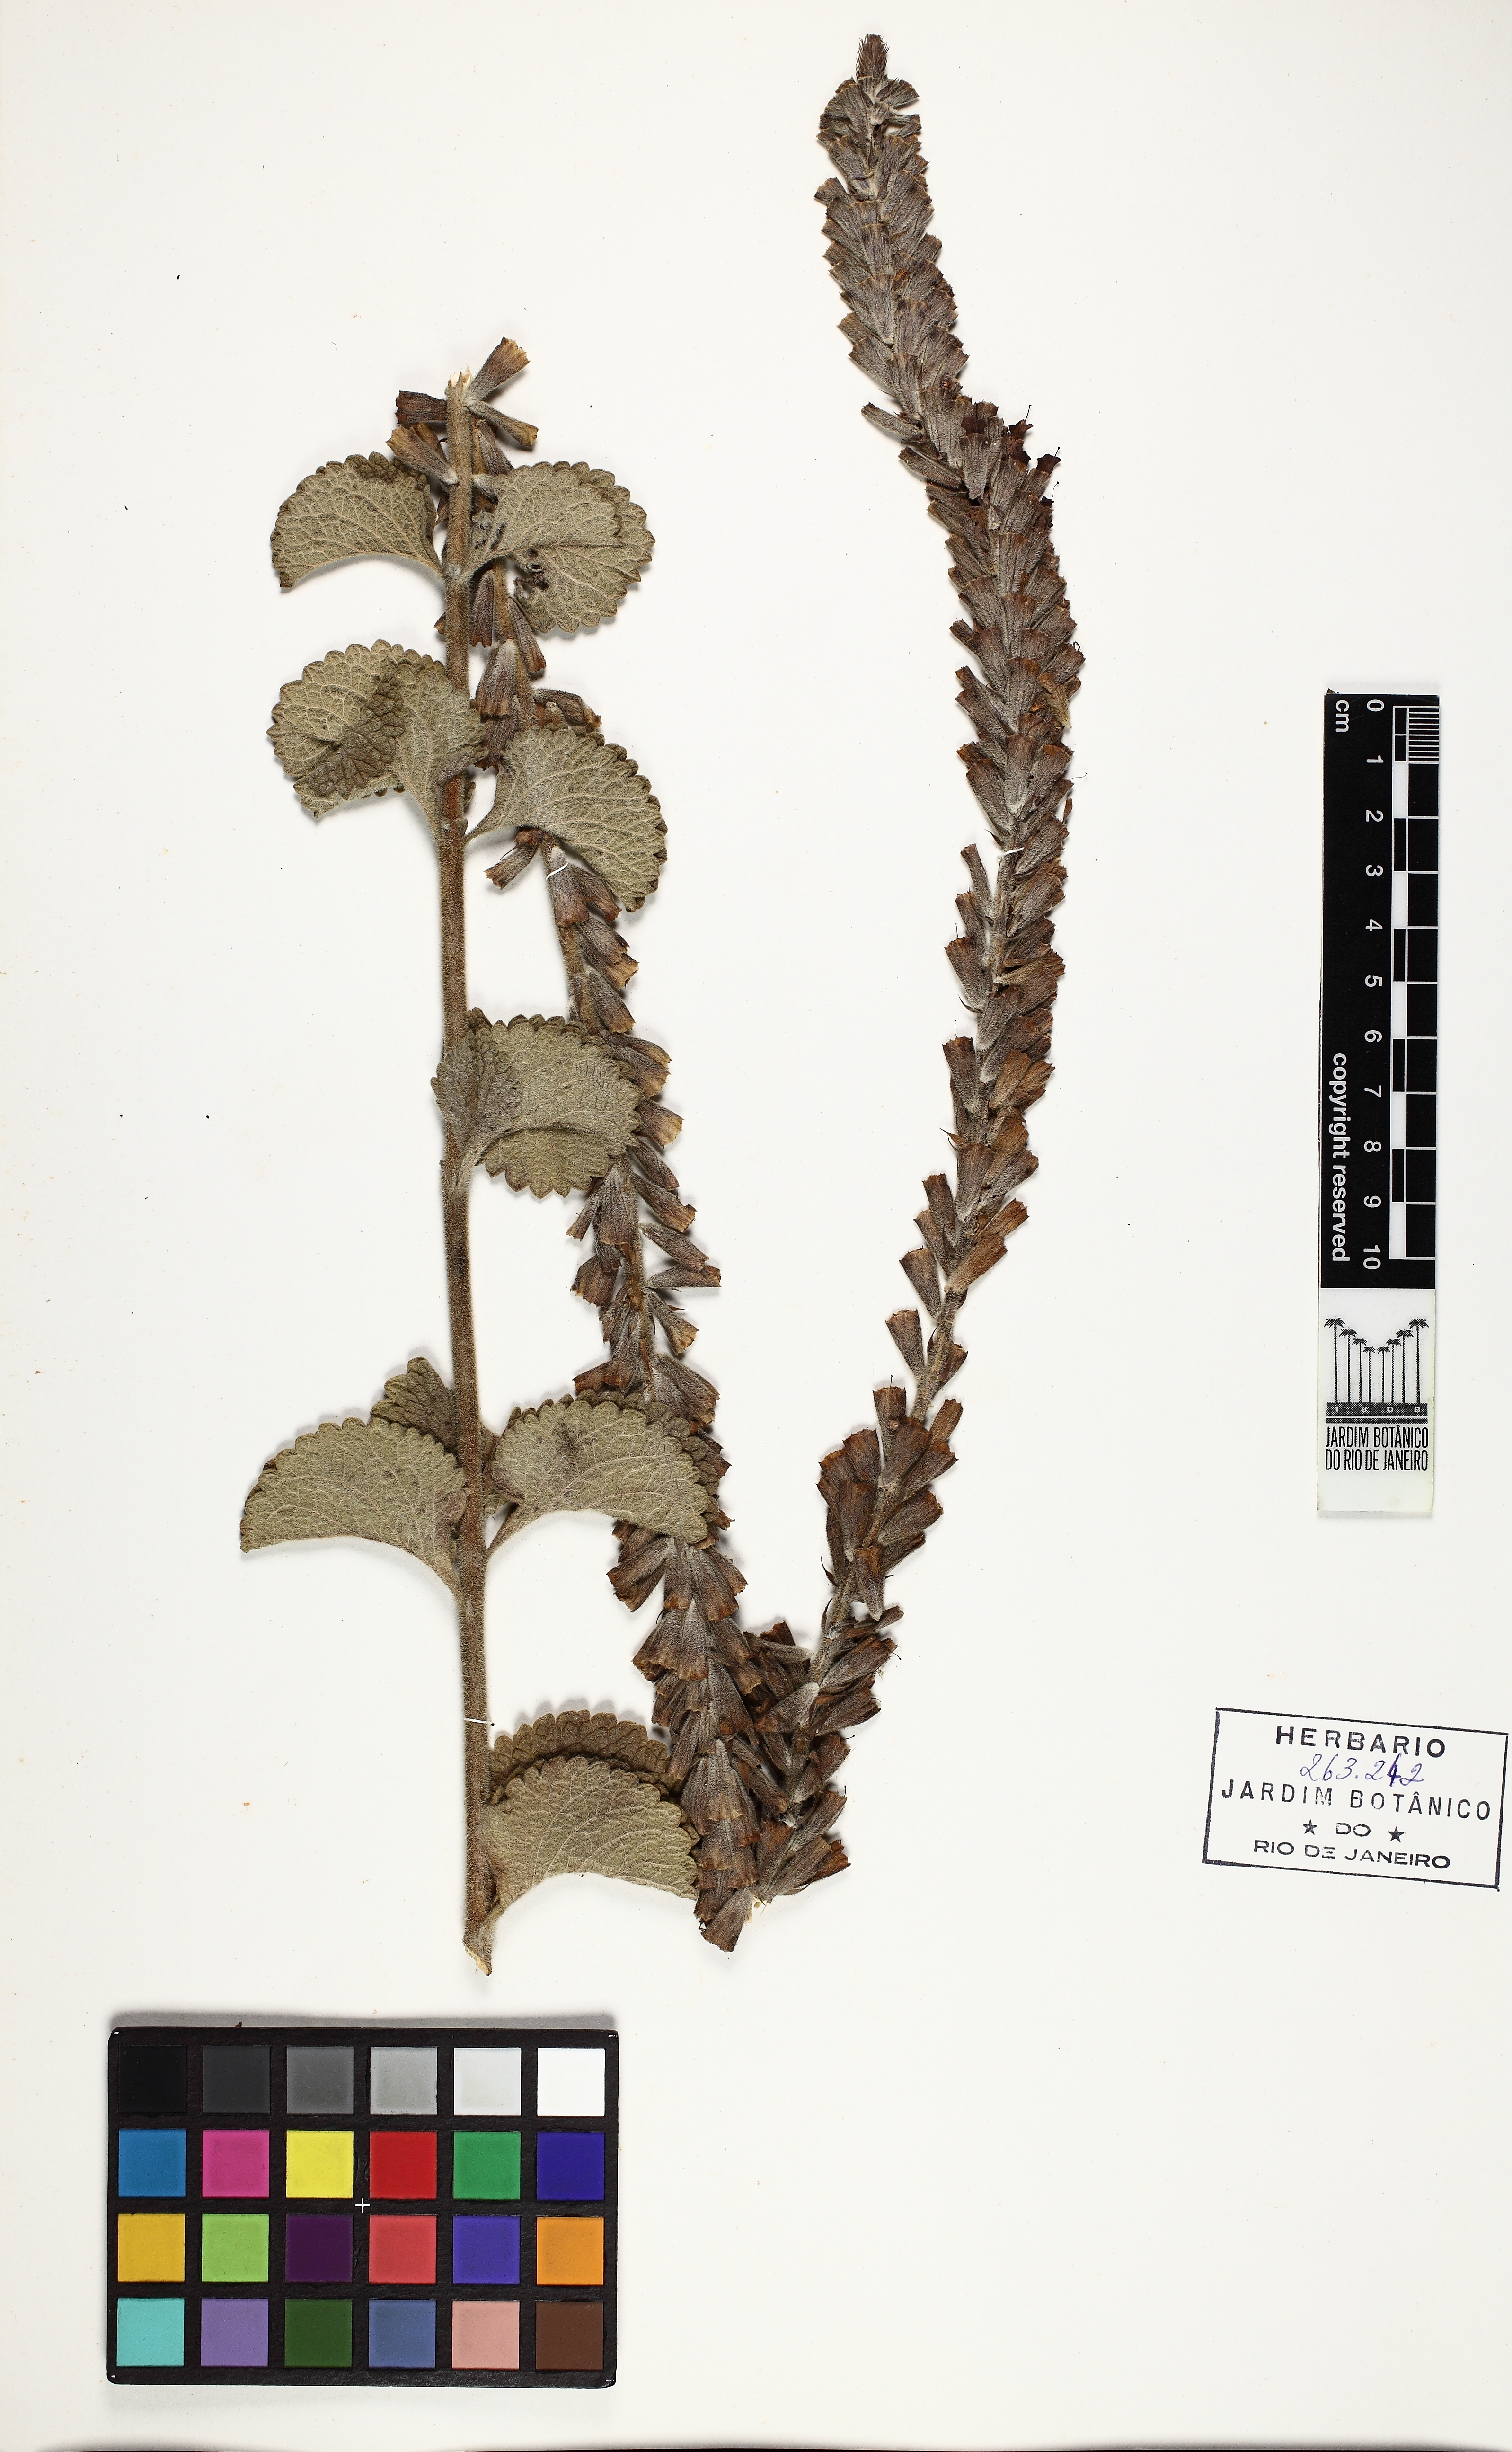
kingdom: Plantae
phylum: Tracheophyta
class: Magnoliopsida
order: Lamiales
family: Verbenaceae
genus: Stachytarpheta
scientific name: Stachytarpheta longispicata
